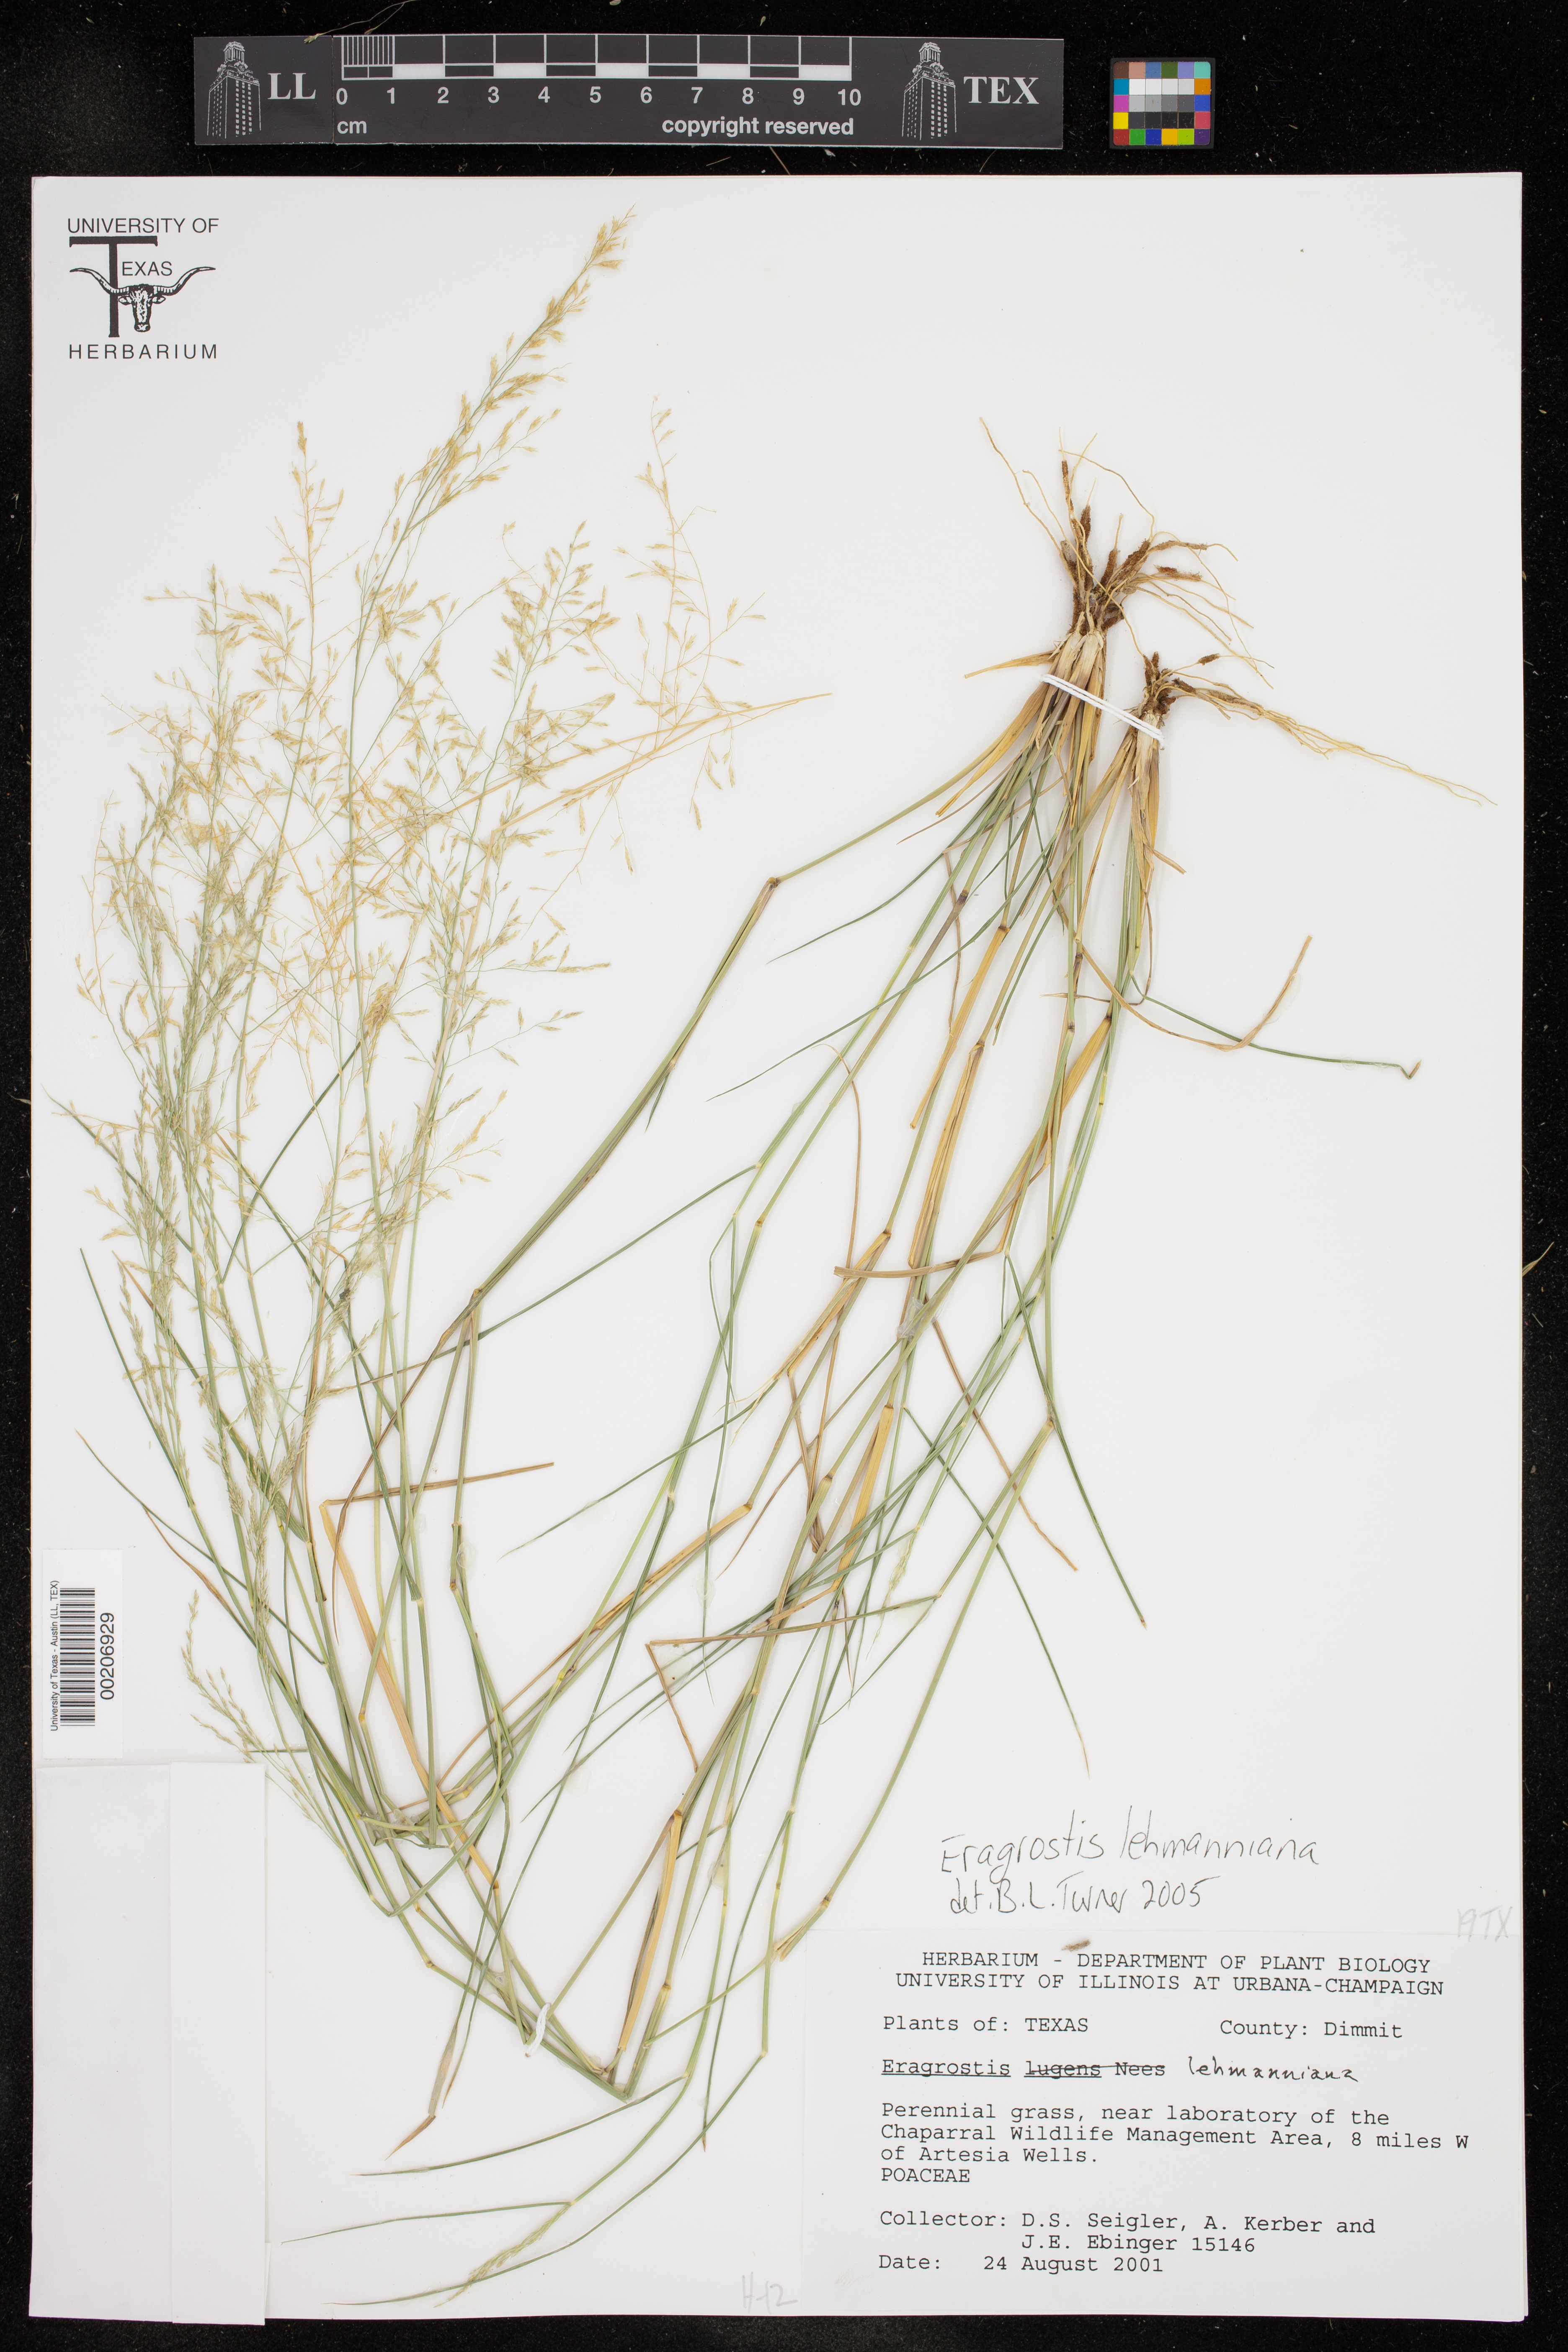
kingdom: Plantae
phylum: Tracheophyta
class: Liliopsida
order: Poales
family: Poaceae
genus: Eragrostis
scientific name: Eragrostis lehmanniana
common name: Lehmann lovegrass
